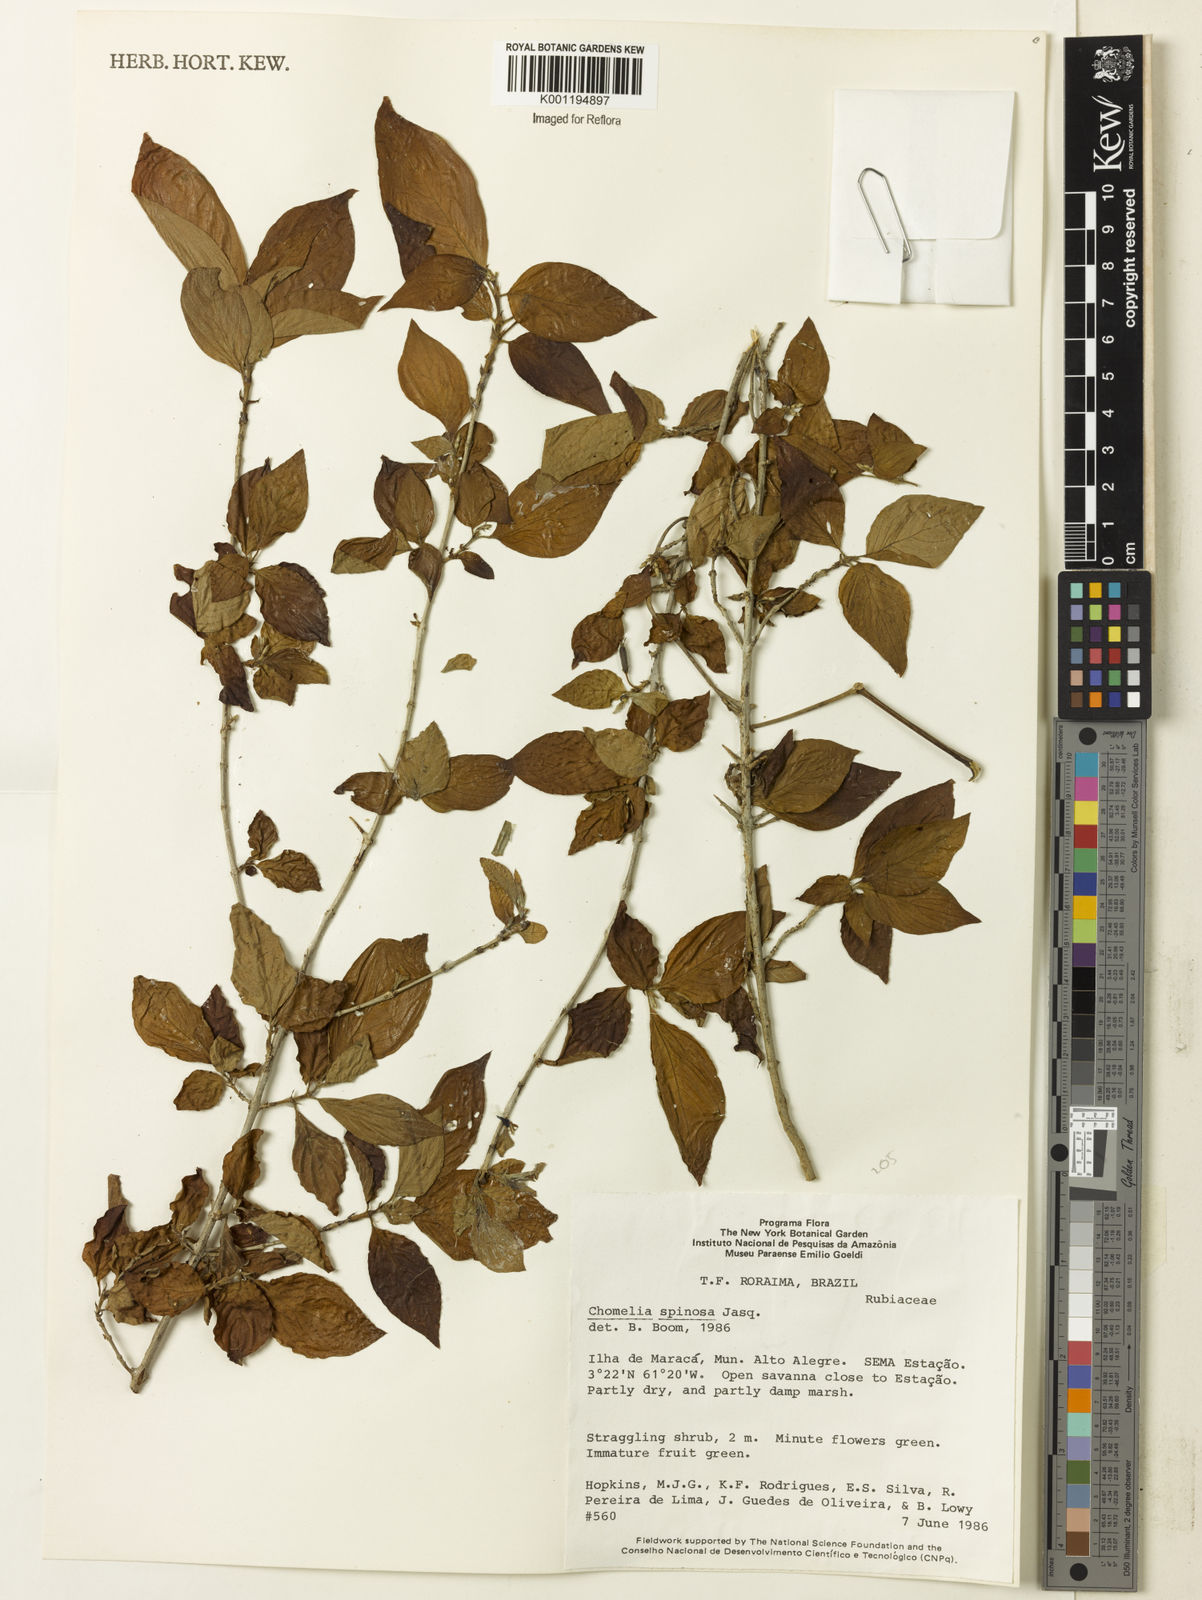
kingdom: Plantae
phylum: Tracheophyta
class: Magnoliopsida
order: Gentianales
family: Rubiaceae
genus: Chomelia
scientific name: Chomelia spinosa
